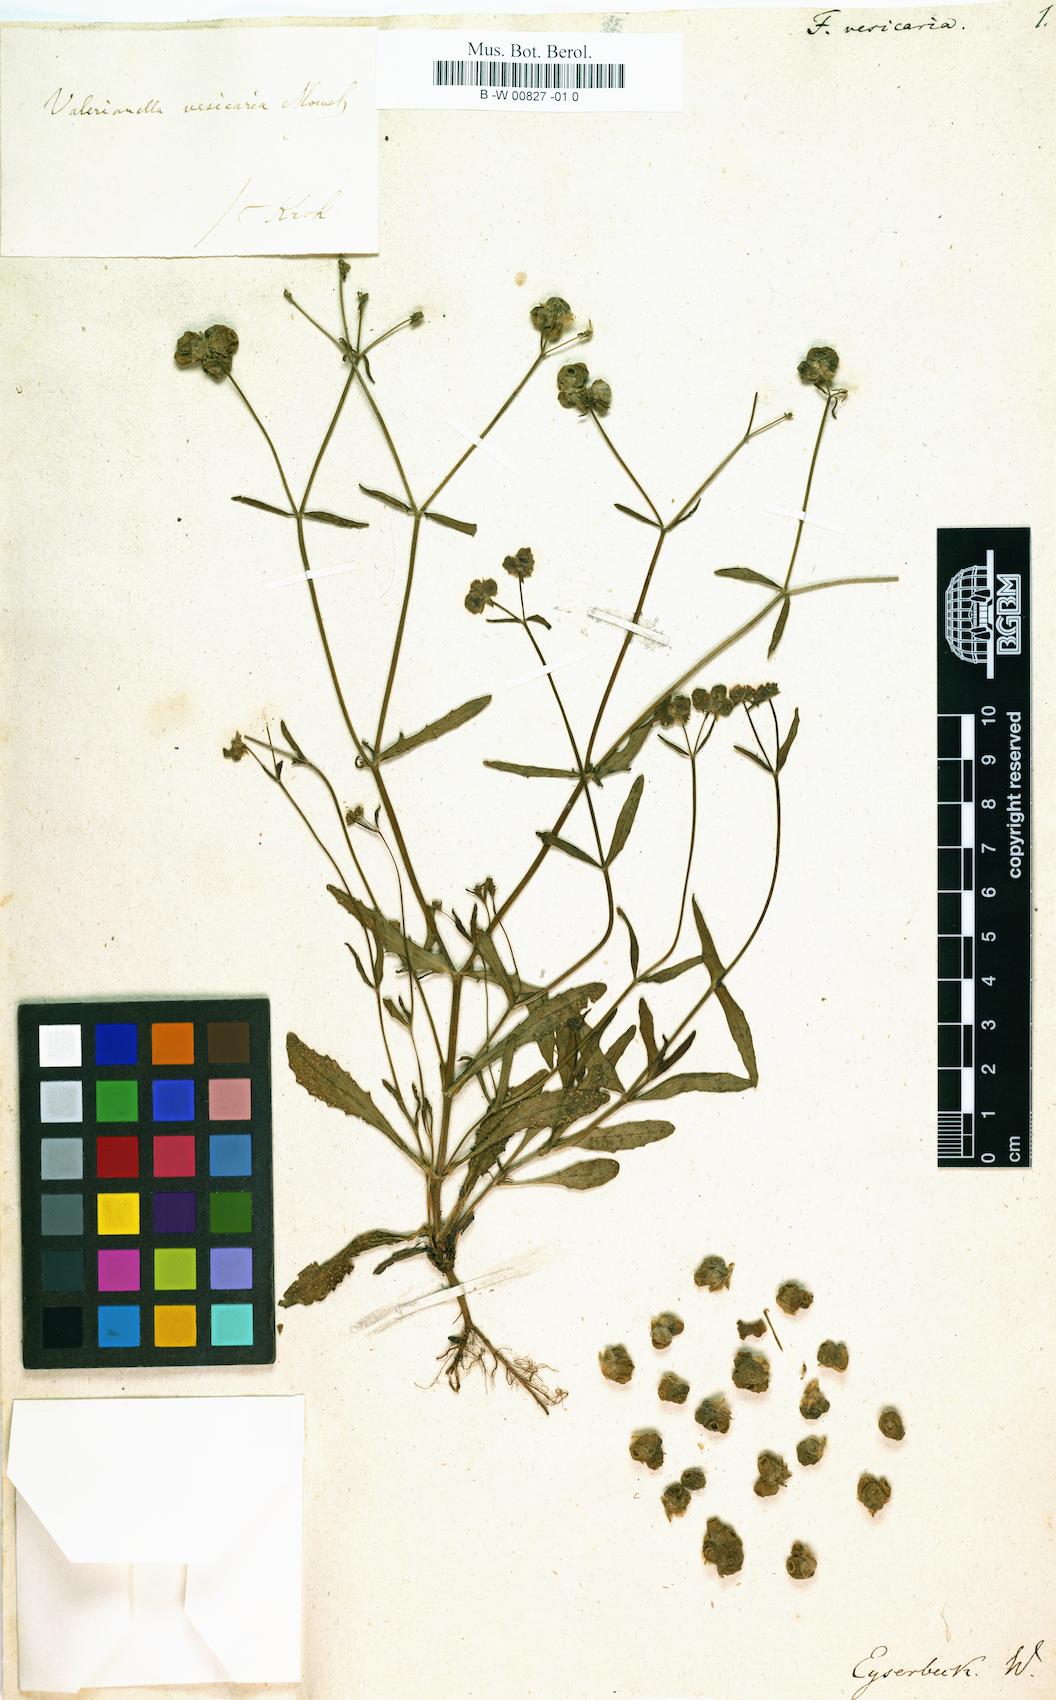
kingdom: Plantae
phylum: Tracheophyta
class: Magnoliopsida
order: Dipsacales
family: Caprifoliaceae
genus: Valerianella
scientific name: Valerianella vesicaria
